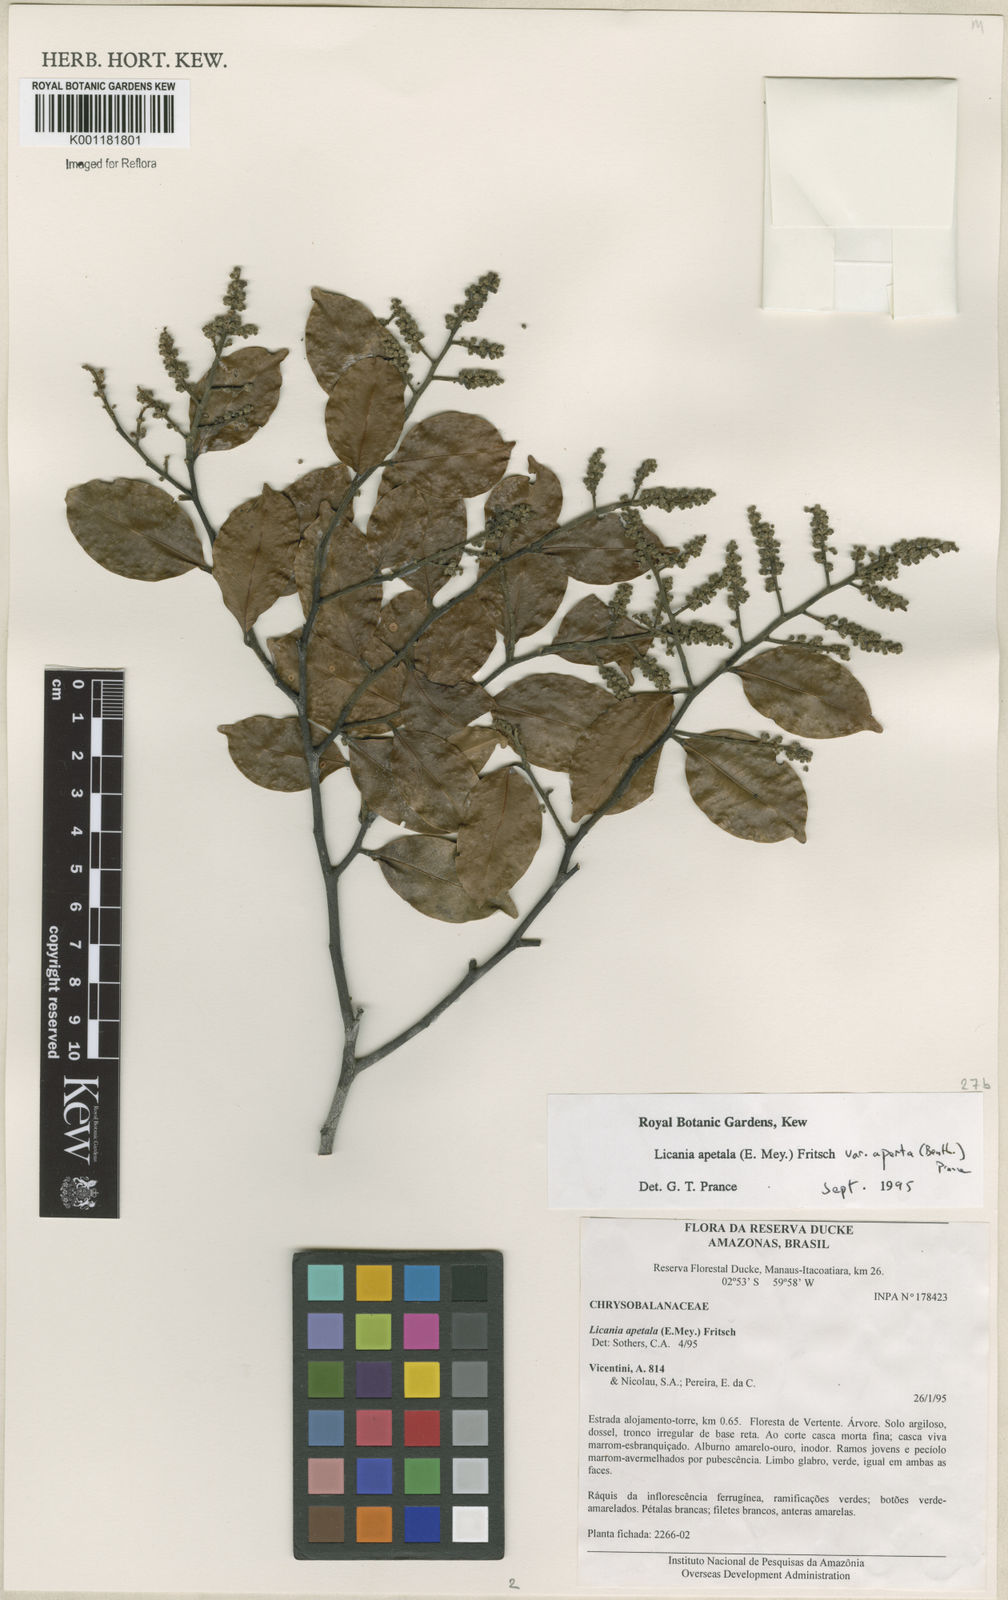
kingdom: Plantae
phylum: Tracheophyta
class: Magnoliopsida
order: Malpighiales
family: Chrysobalanaceae
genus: Leptobalanus
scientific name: Leptobalanus apetalus
